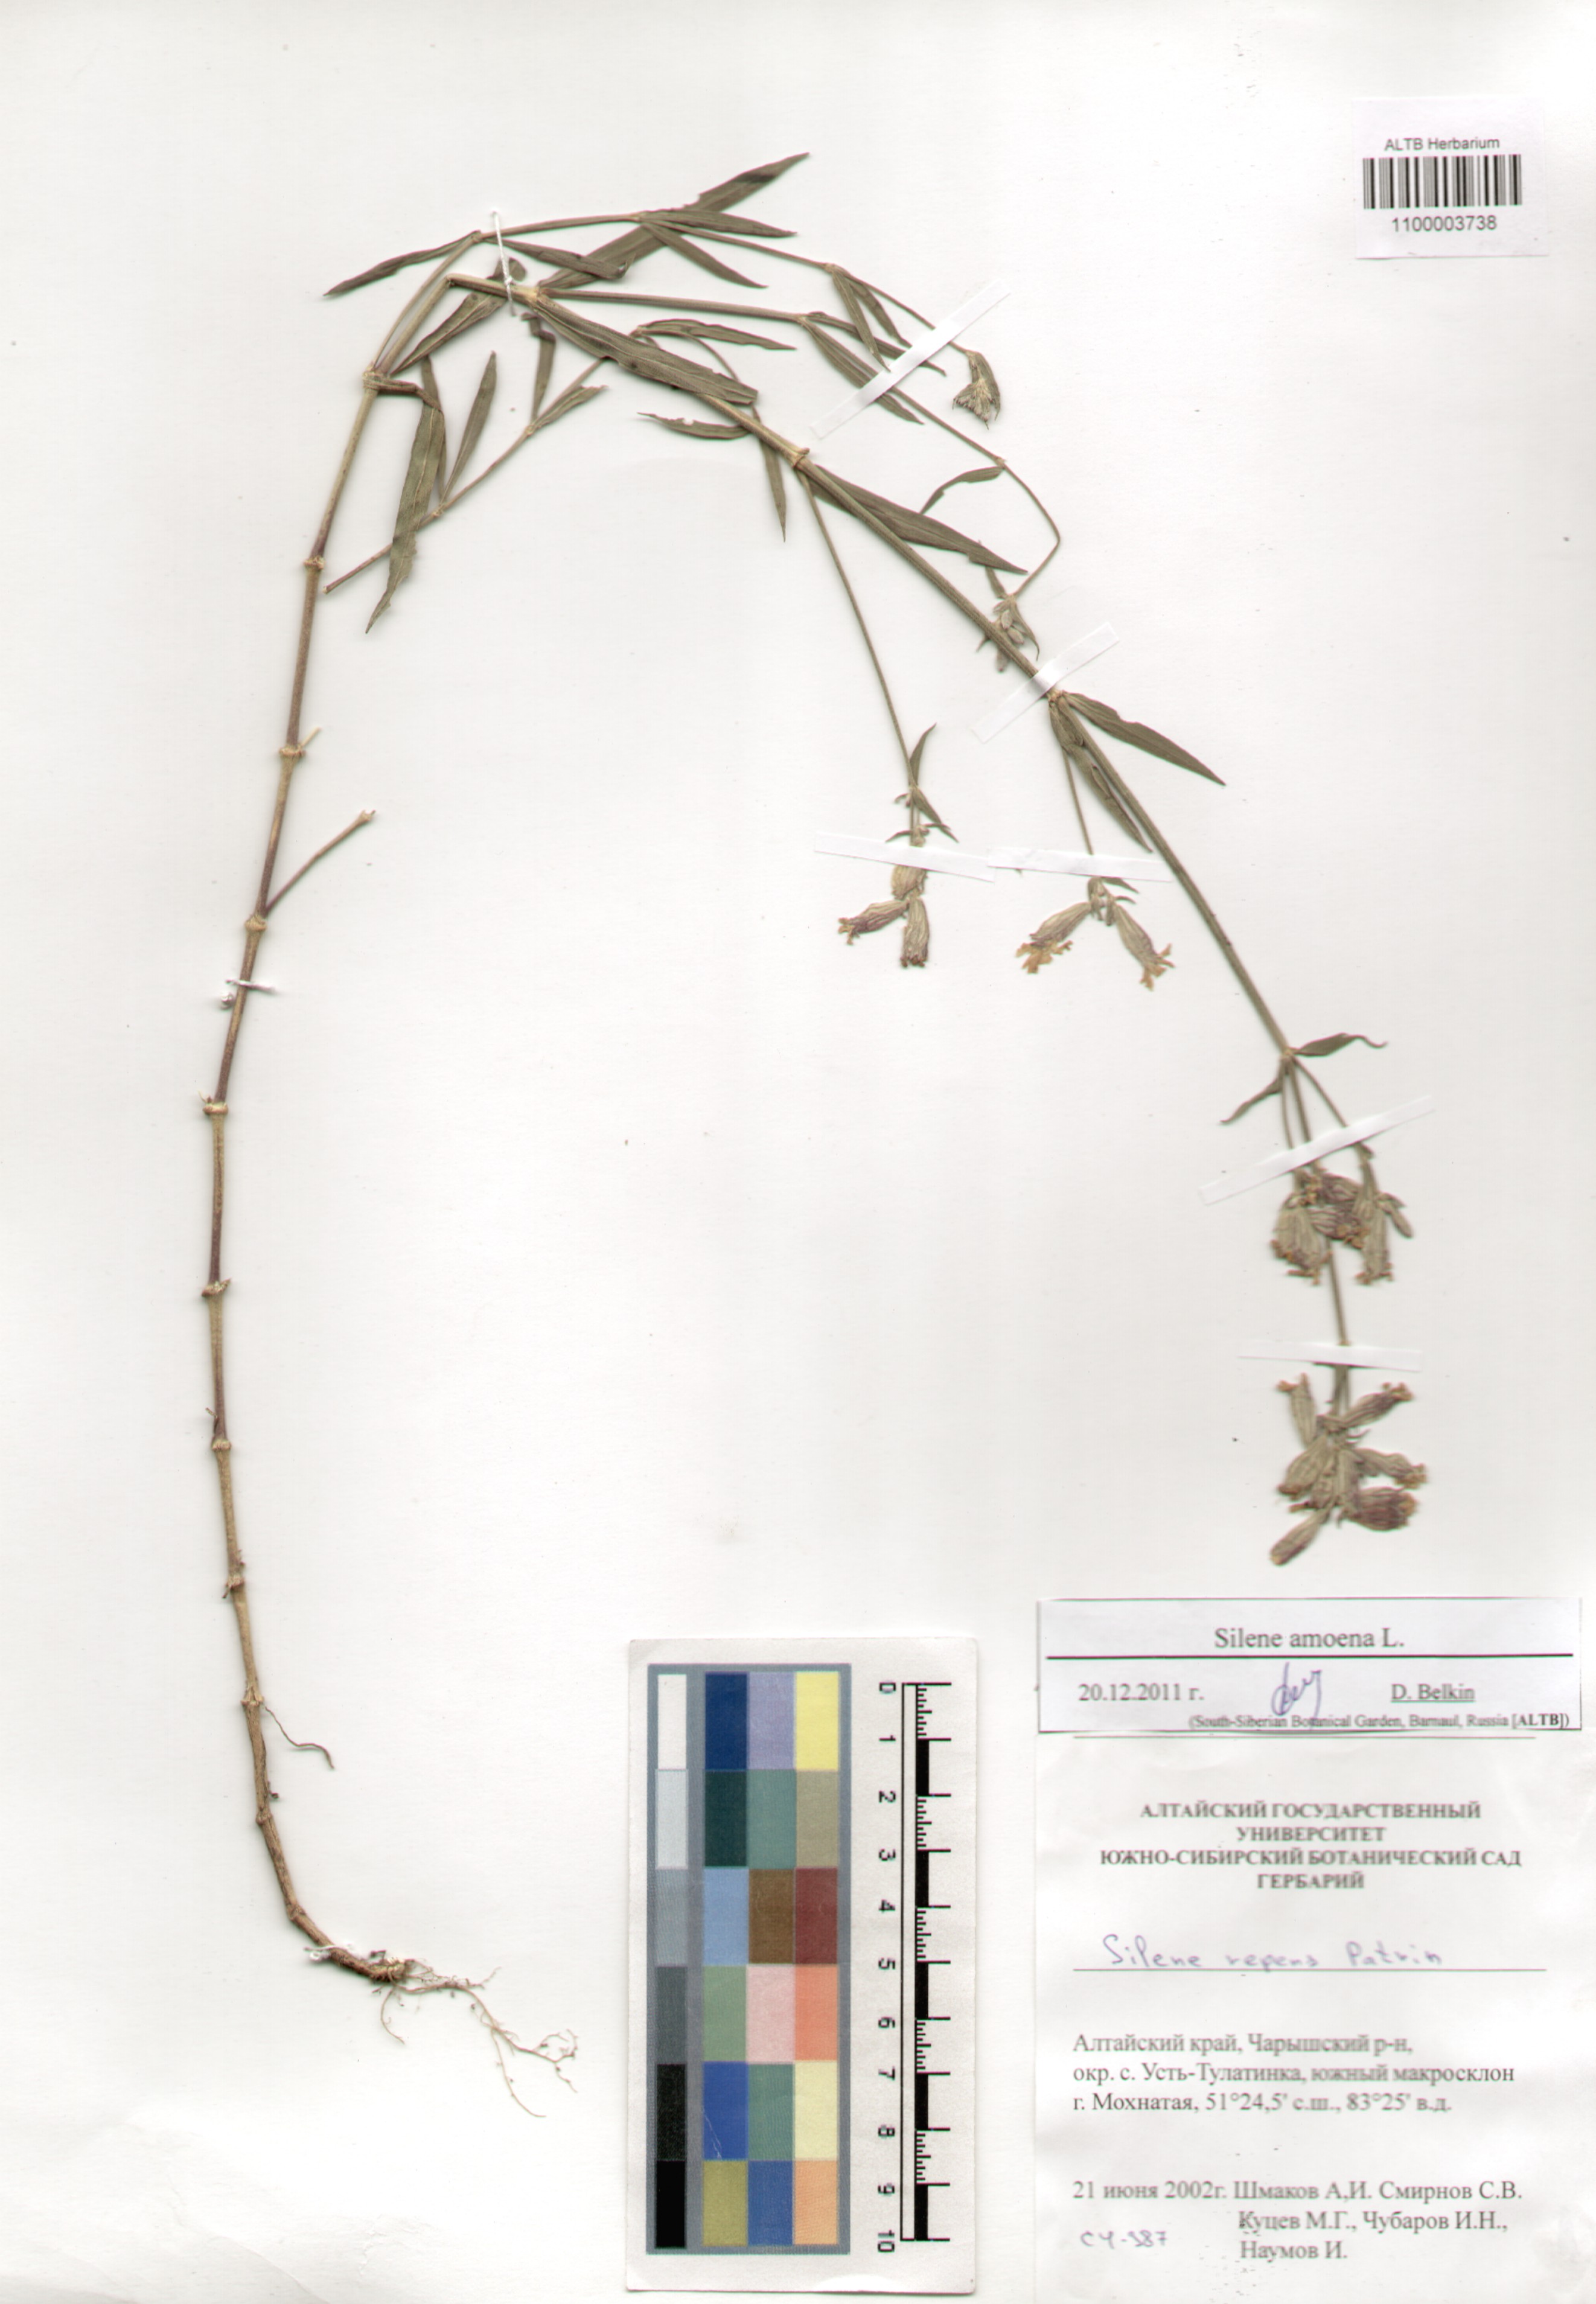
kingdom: Plantae
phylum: Tracheophyta
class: Magnoliopsida
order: Caryophyllales
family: Caryophyllaceae
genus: Silene
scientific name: Silene amoena
